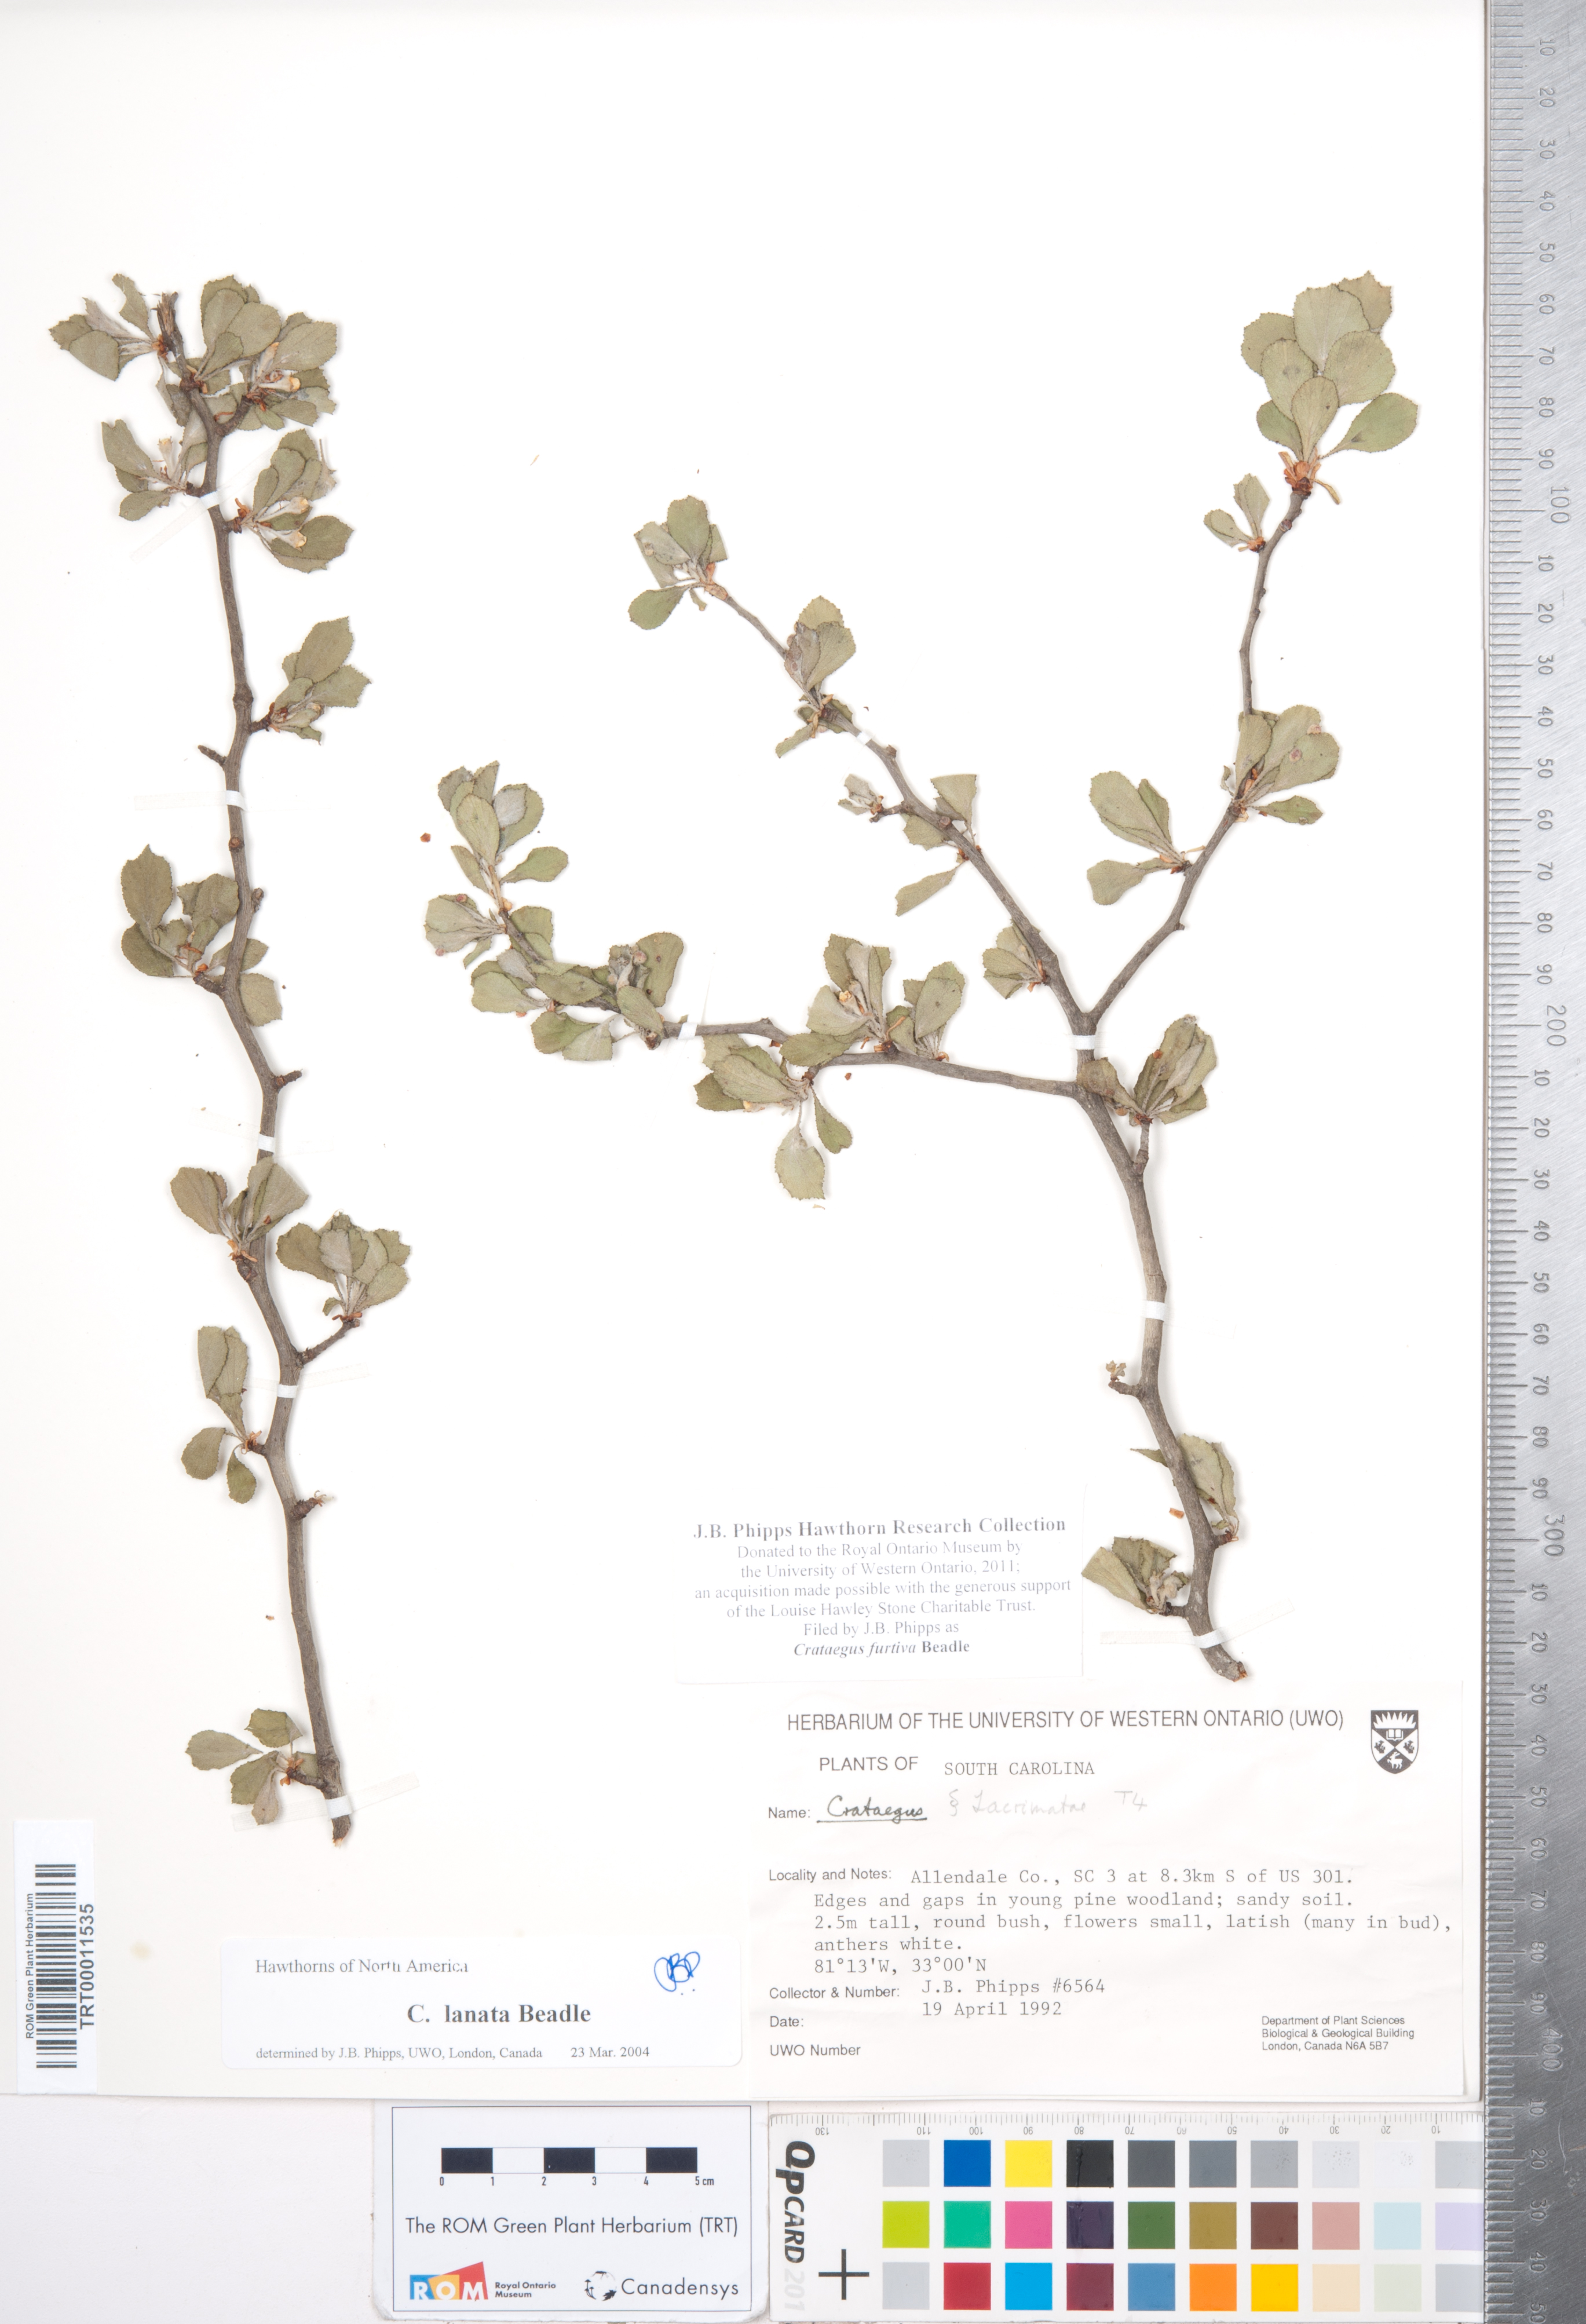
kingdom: Plantae
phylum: Tracheophyta
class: Magnoliopsida
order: Rosales
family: Rosaceae
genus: Crataegus
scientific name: Crataegus senta
